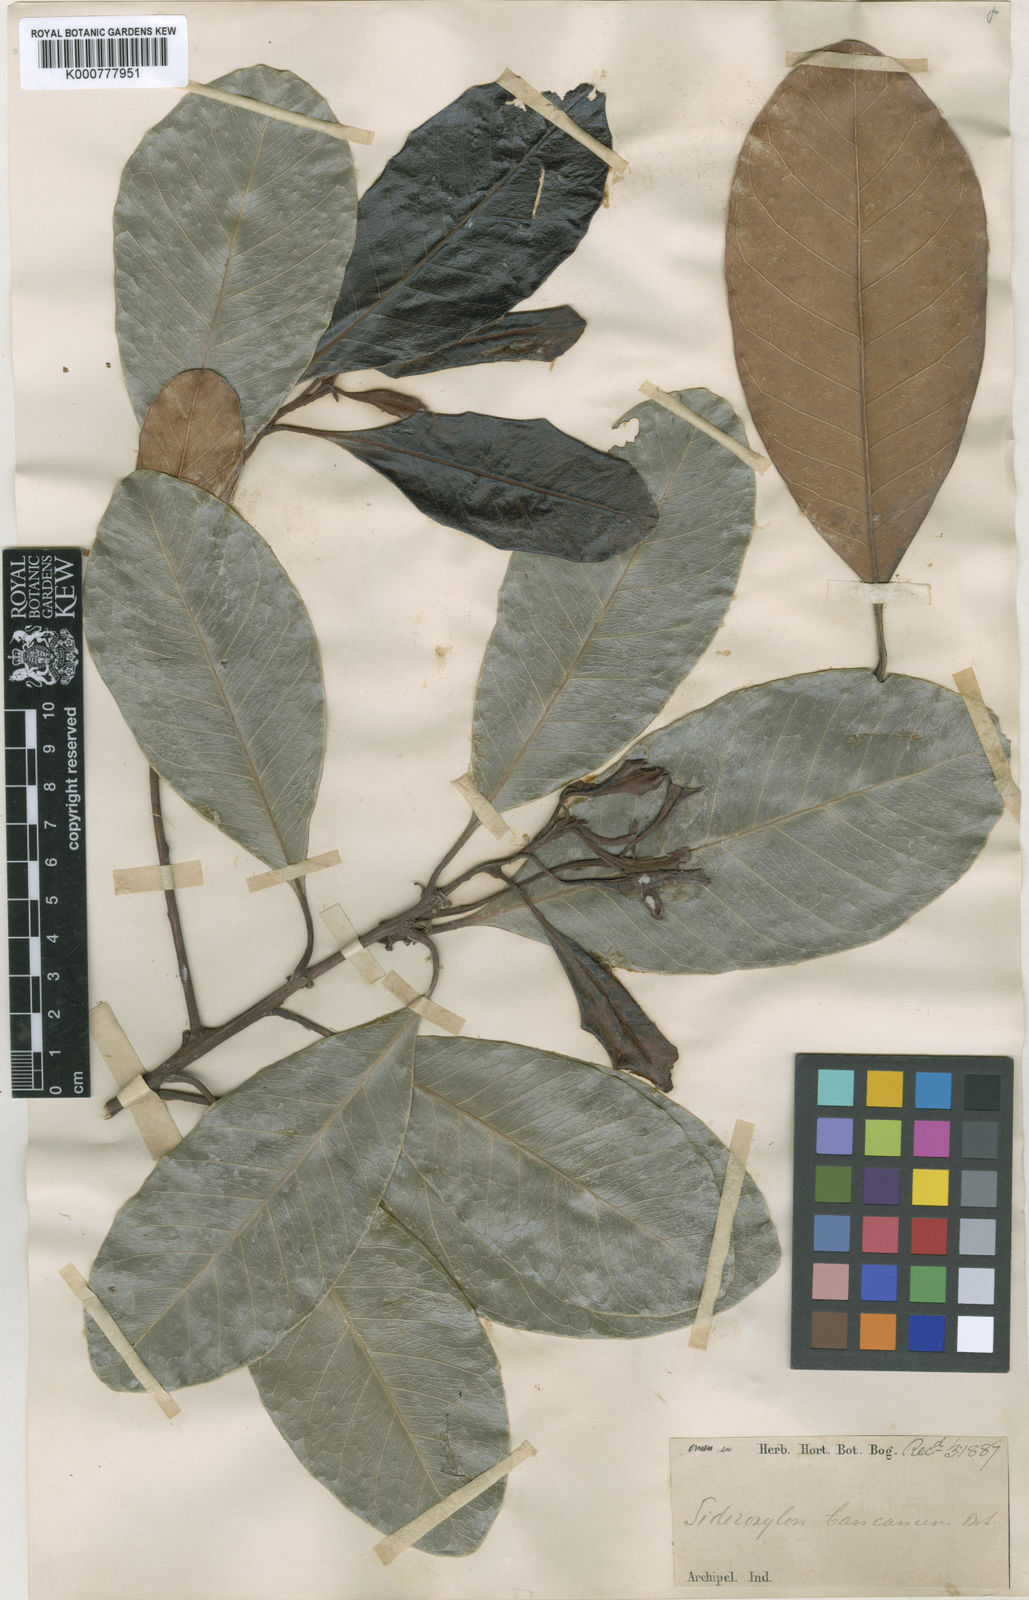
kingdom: Plantae
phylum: Tracheophyta
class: Magnoliopsida
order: Ericales
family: Sapotaceae
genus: Planchonella
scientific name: Planchonella obovata
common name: Black-ash
